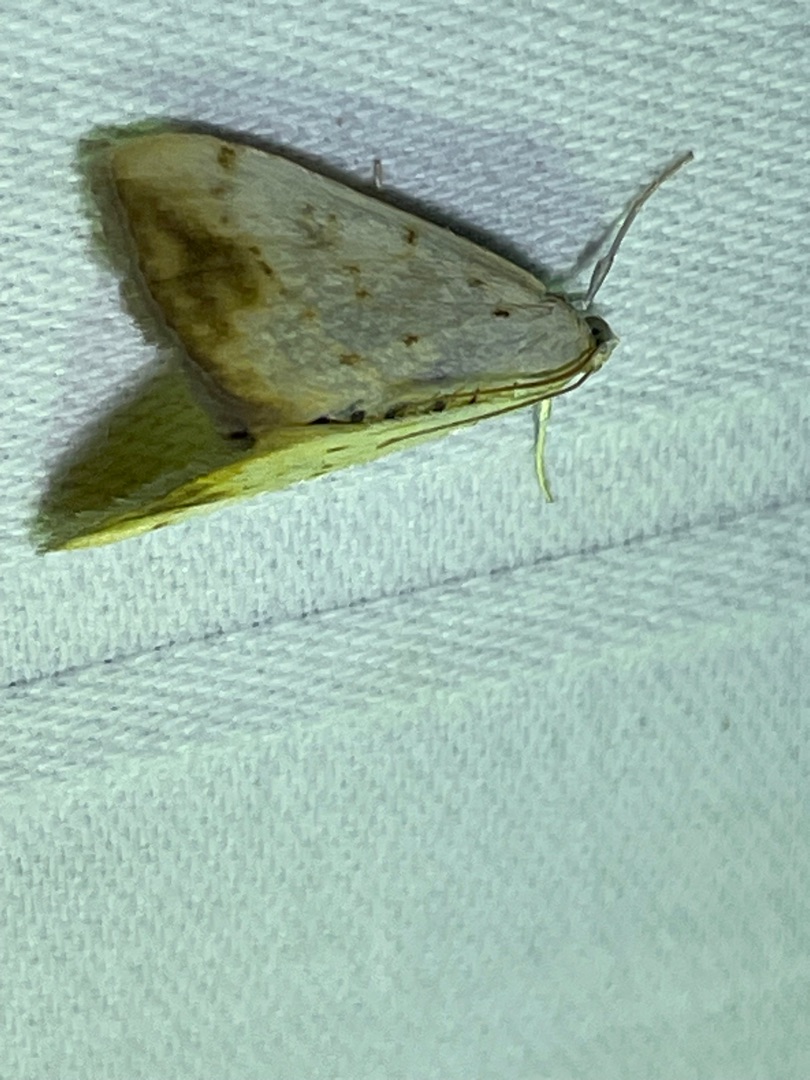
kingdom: Animalia
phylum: Arthropoda
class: Insecta
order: Lepidoptera
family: Crambidae
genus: Evergestis
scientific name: Evergestis extimalis
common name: Korsblomsthalvmøl
